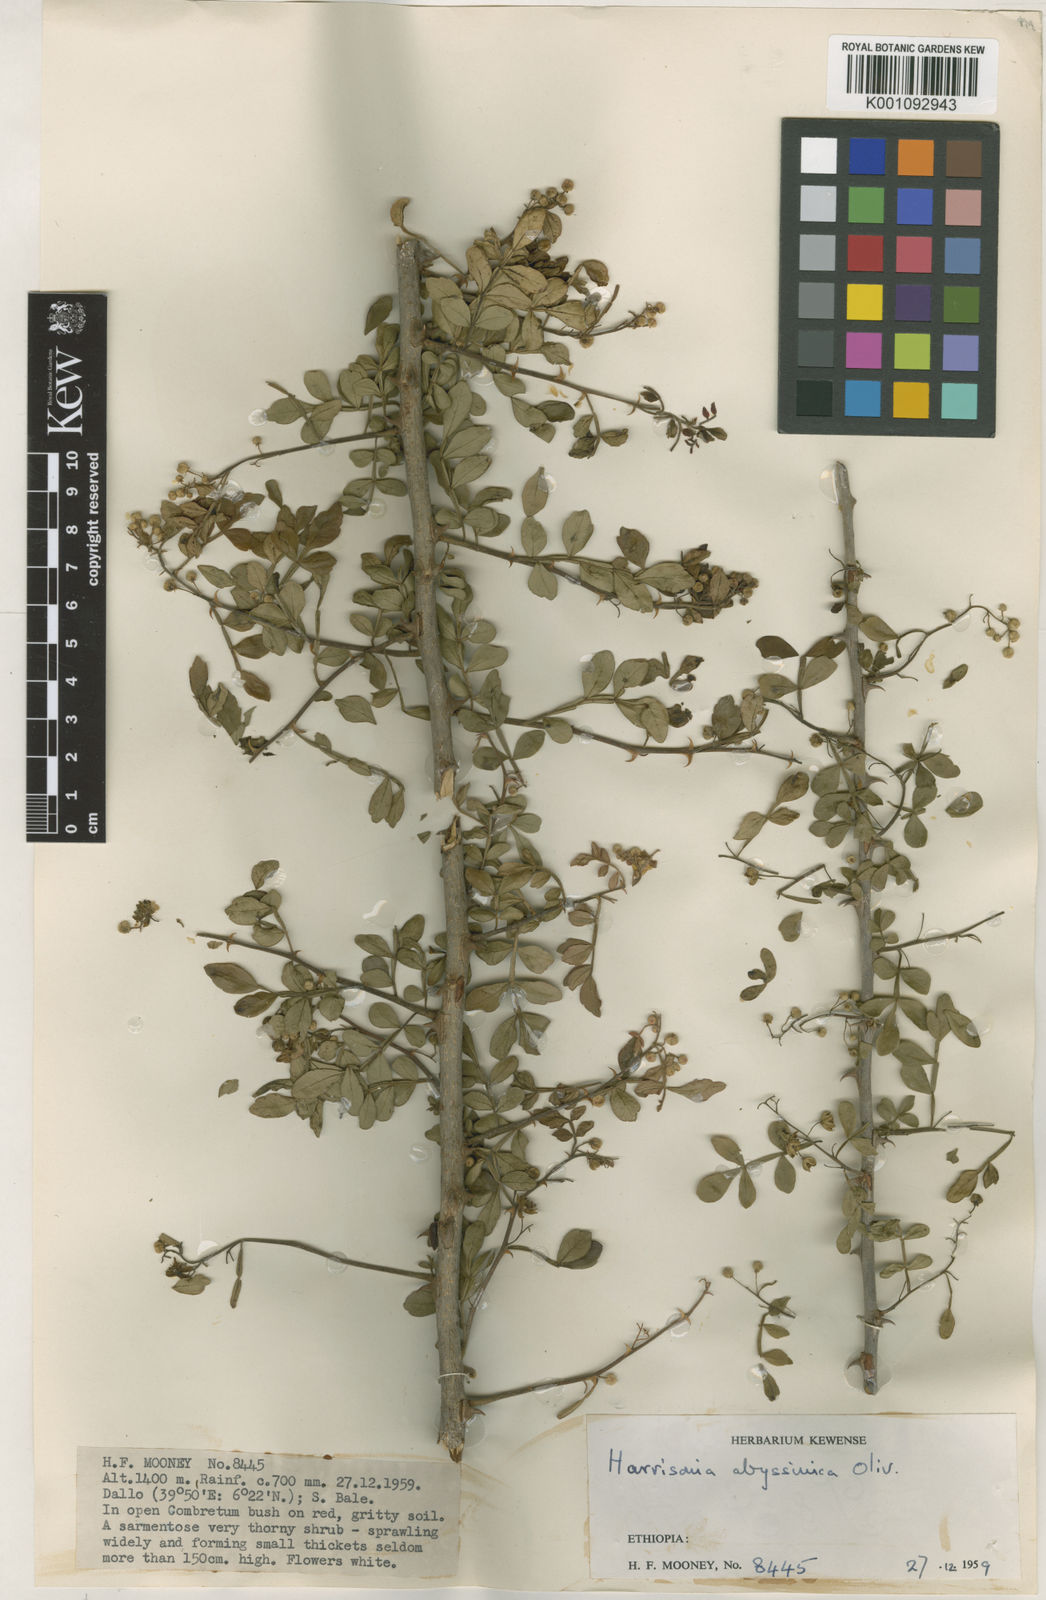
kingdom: Plantae
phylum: Tracheophyta
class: Magnoliopsida
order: Sapindales
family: Rutaceae
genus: Harrisonia
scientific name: Harrisonia abyssinica
